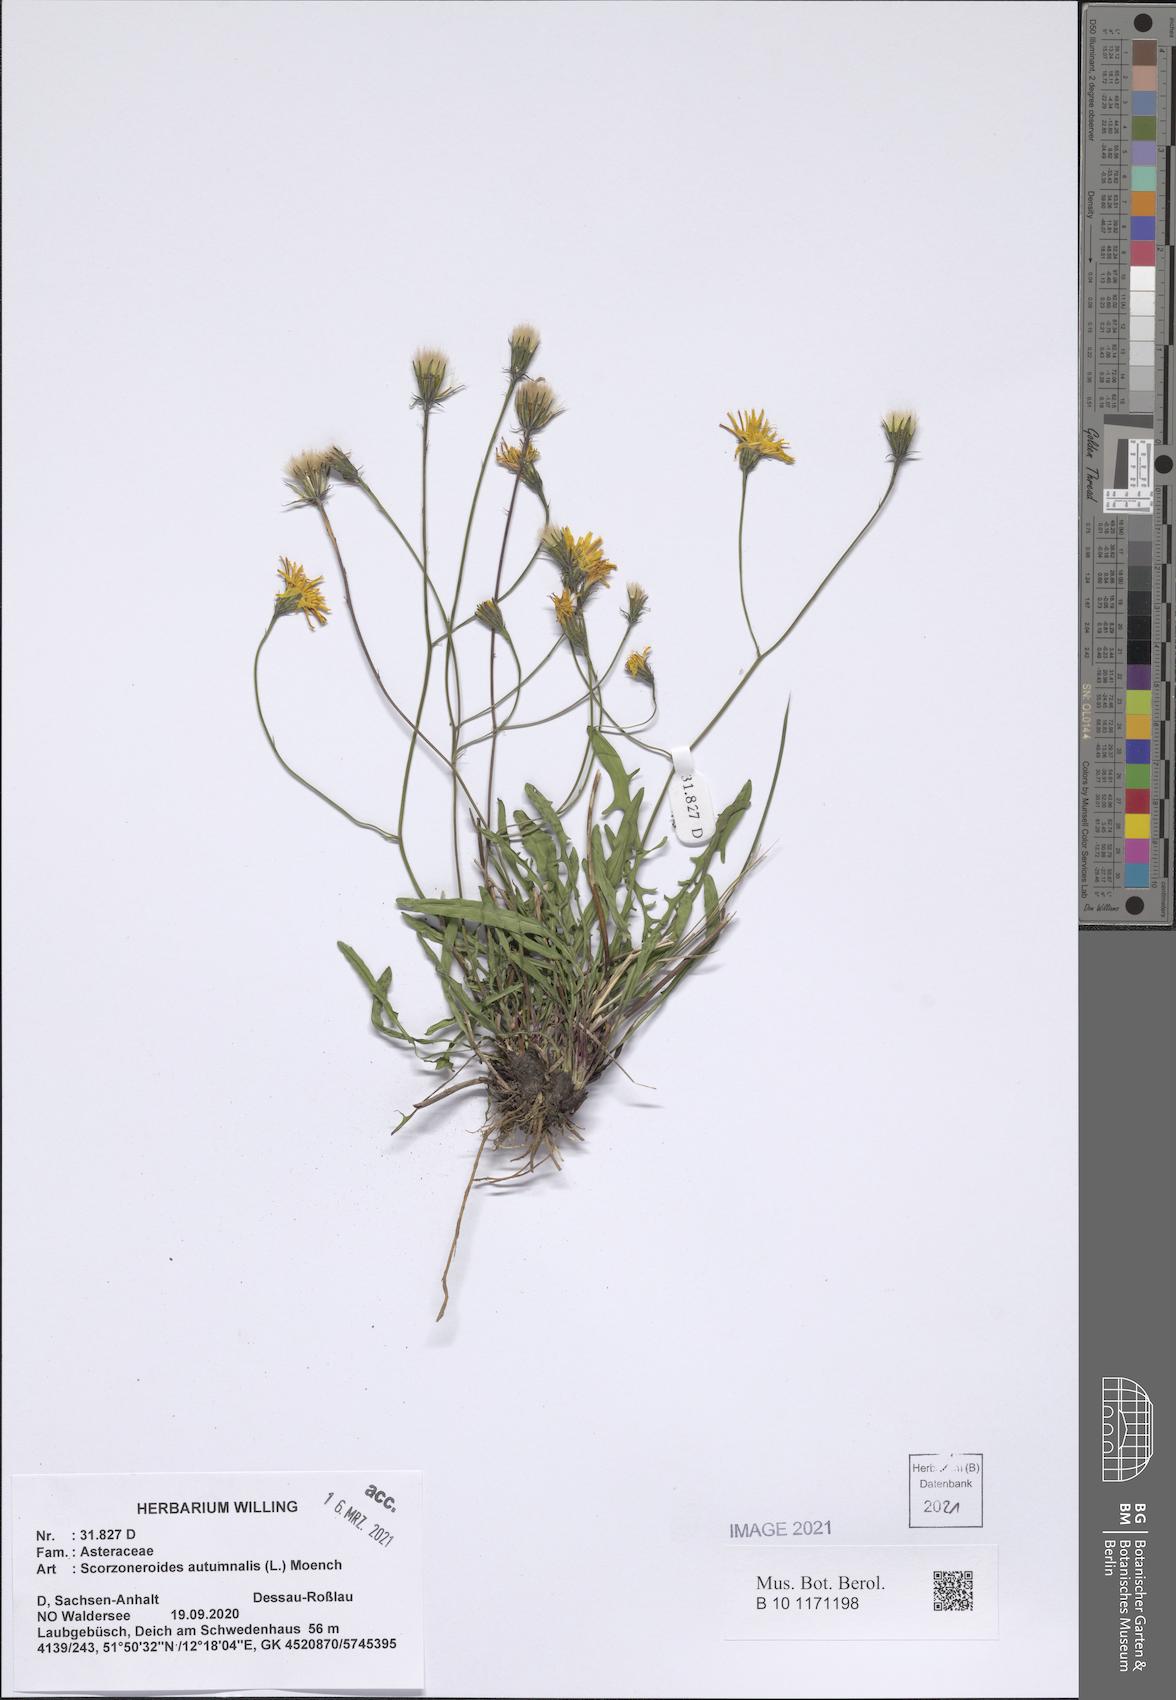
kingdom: Plantae
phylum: Tracheophyta
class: Magnoliopsida
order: Asterales
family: Asteraceae
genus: Scorzoneroides
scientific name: Scorzoneroides autumnalis
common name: Autumn hawkbit
